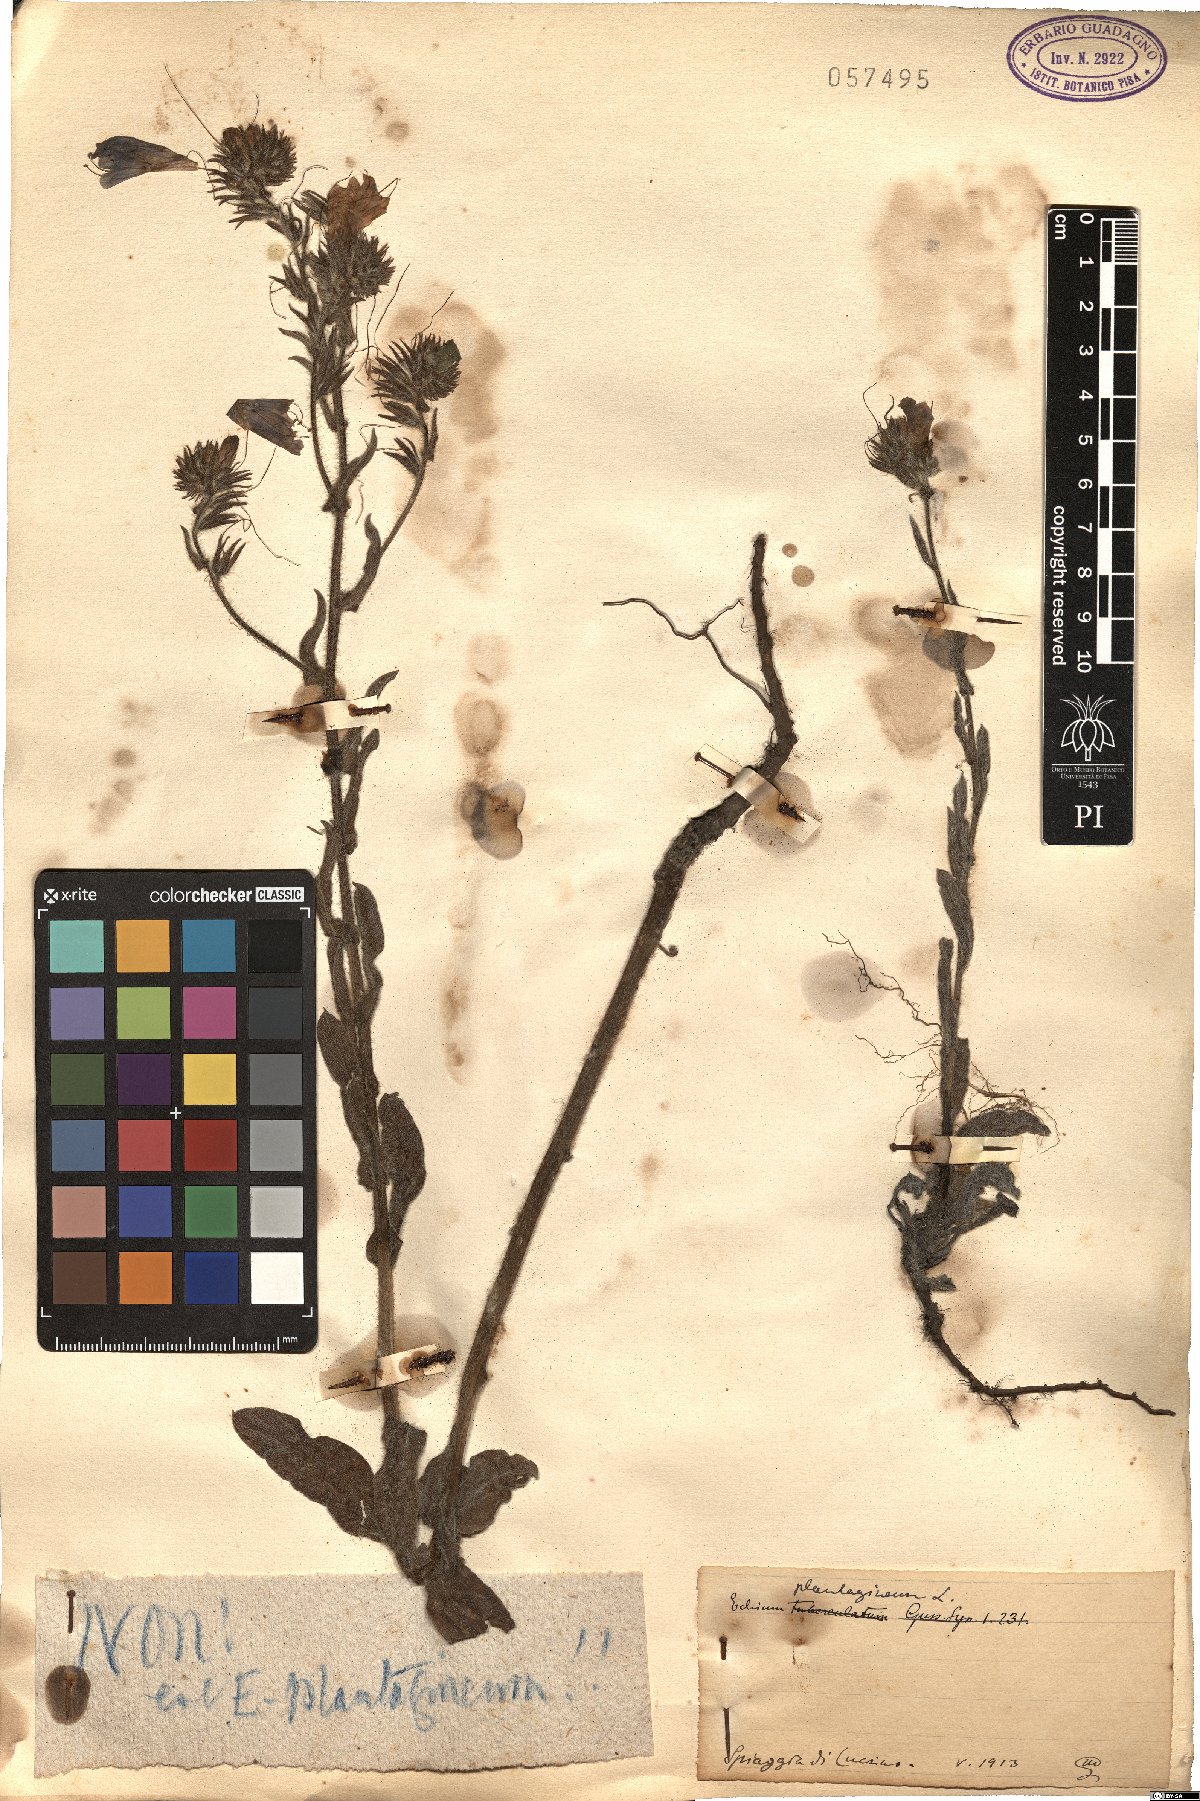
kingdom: Plantae
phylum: Tracheophyta
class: Magnoliopsida
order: Boraginales
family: Boraginaceae
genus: Echium
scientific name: Echium plantagineum
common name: Purple viper's-bugloss
